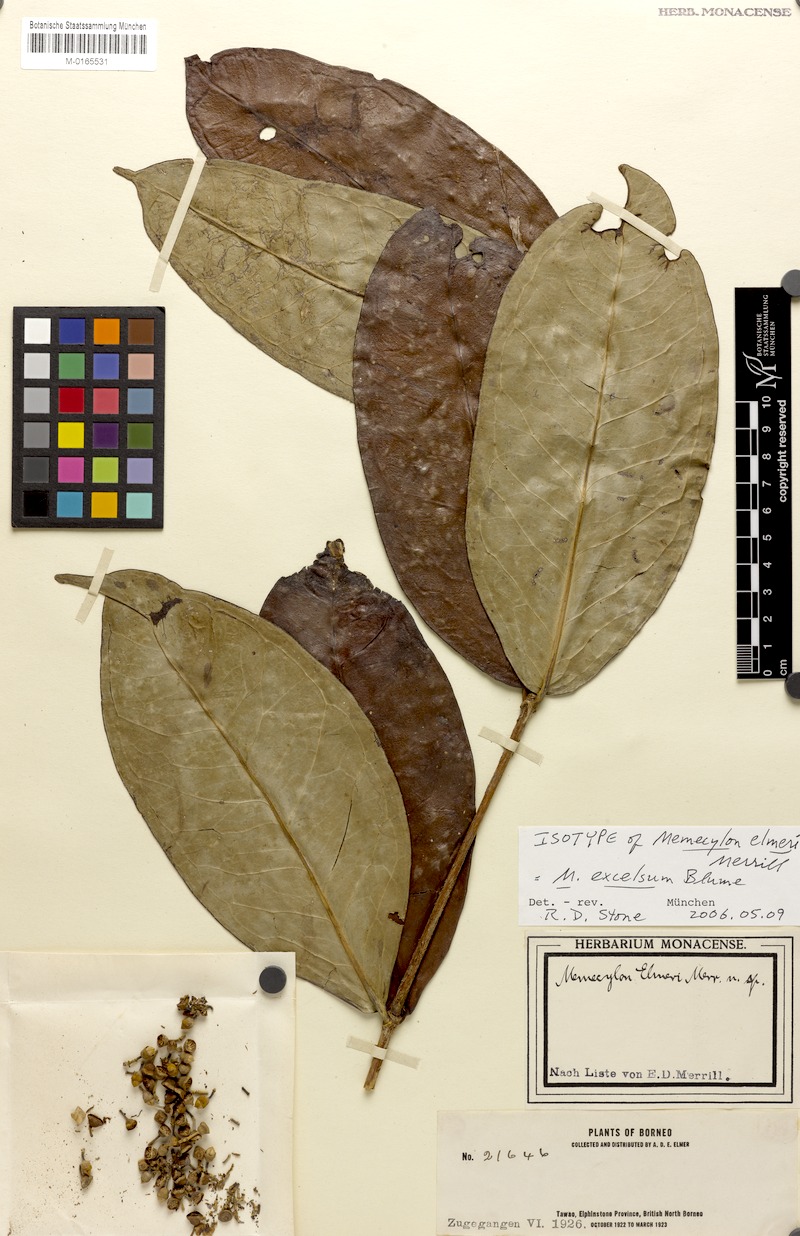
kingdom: Plantae
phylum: Tracheophyta
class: Magnoliopsida
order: Myrtales
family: Melastomataceae
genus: Memecylon
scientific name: Memecylon excelsum
